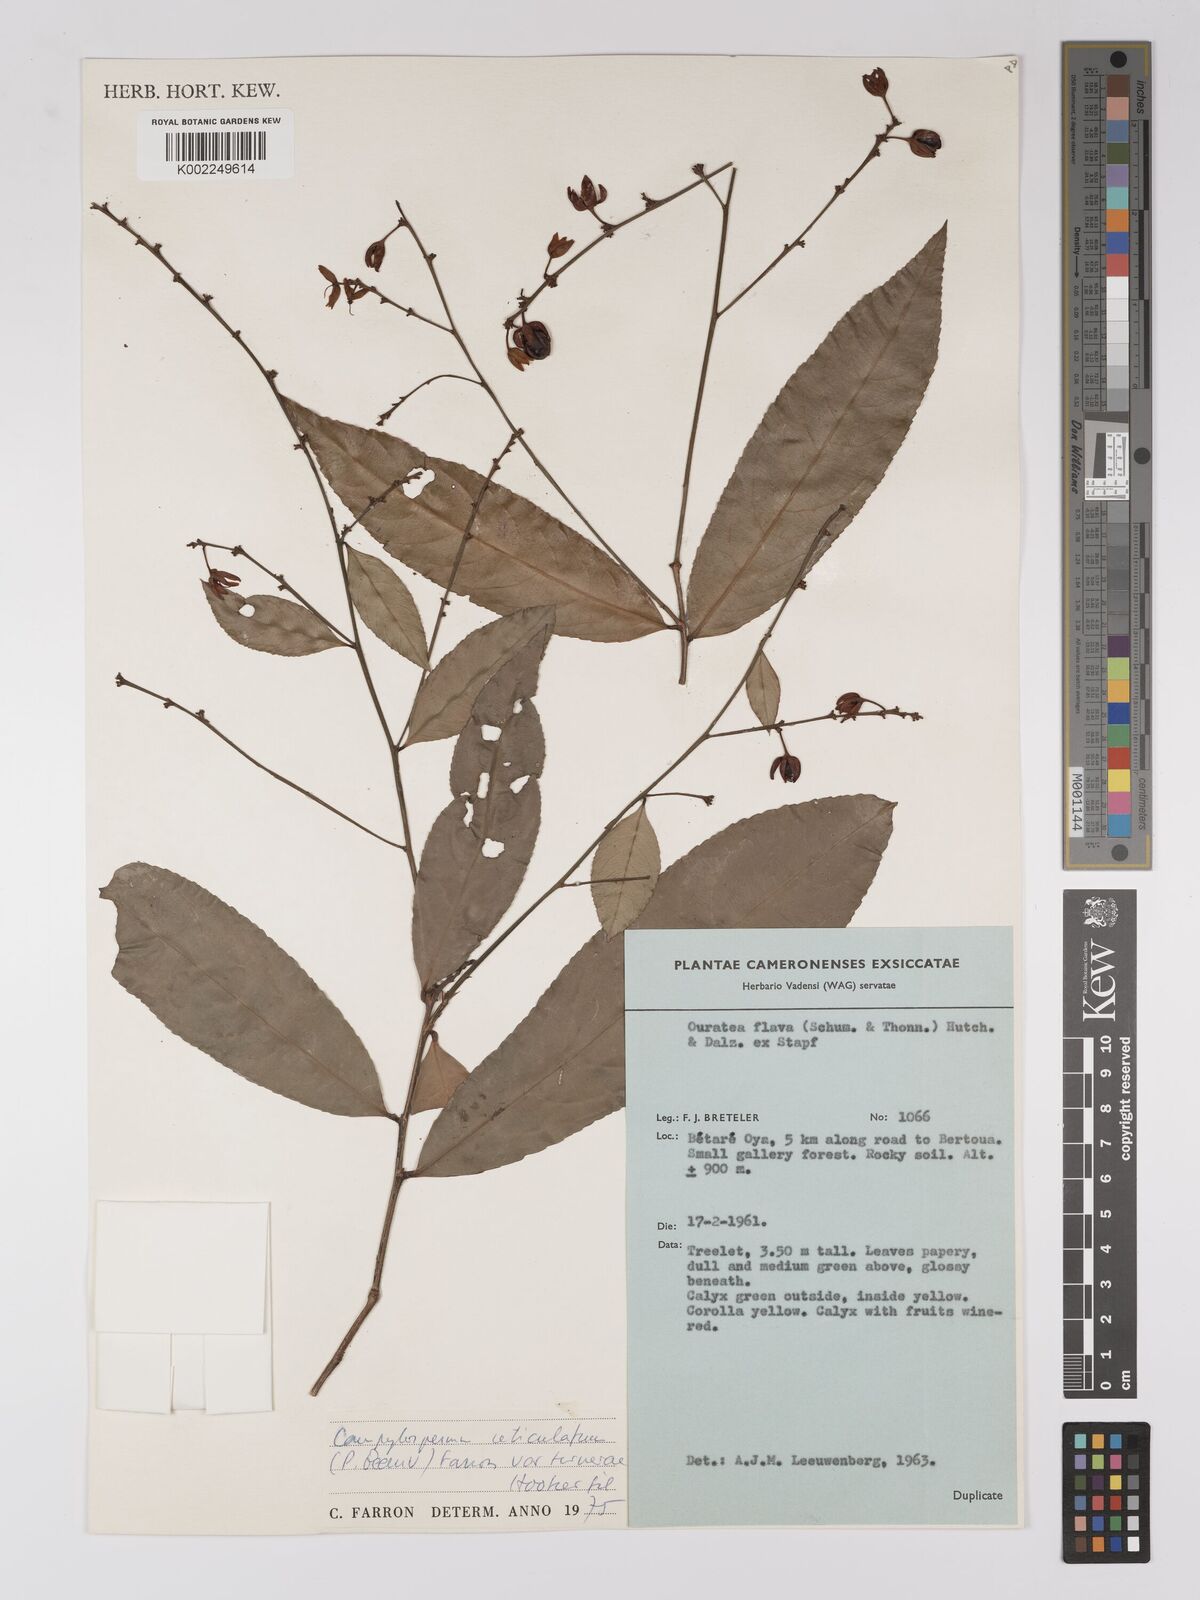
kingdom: Plantae
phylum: Tracheophyta
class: Magnoliopsida
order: Malpighiales
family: Ochnaceae
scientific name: Ochnaceae
